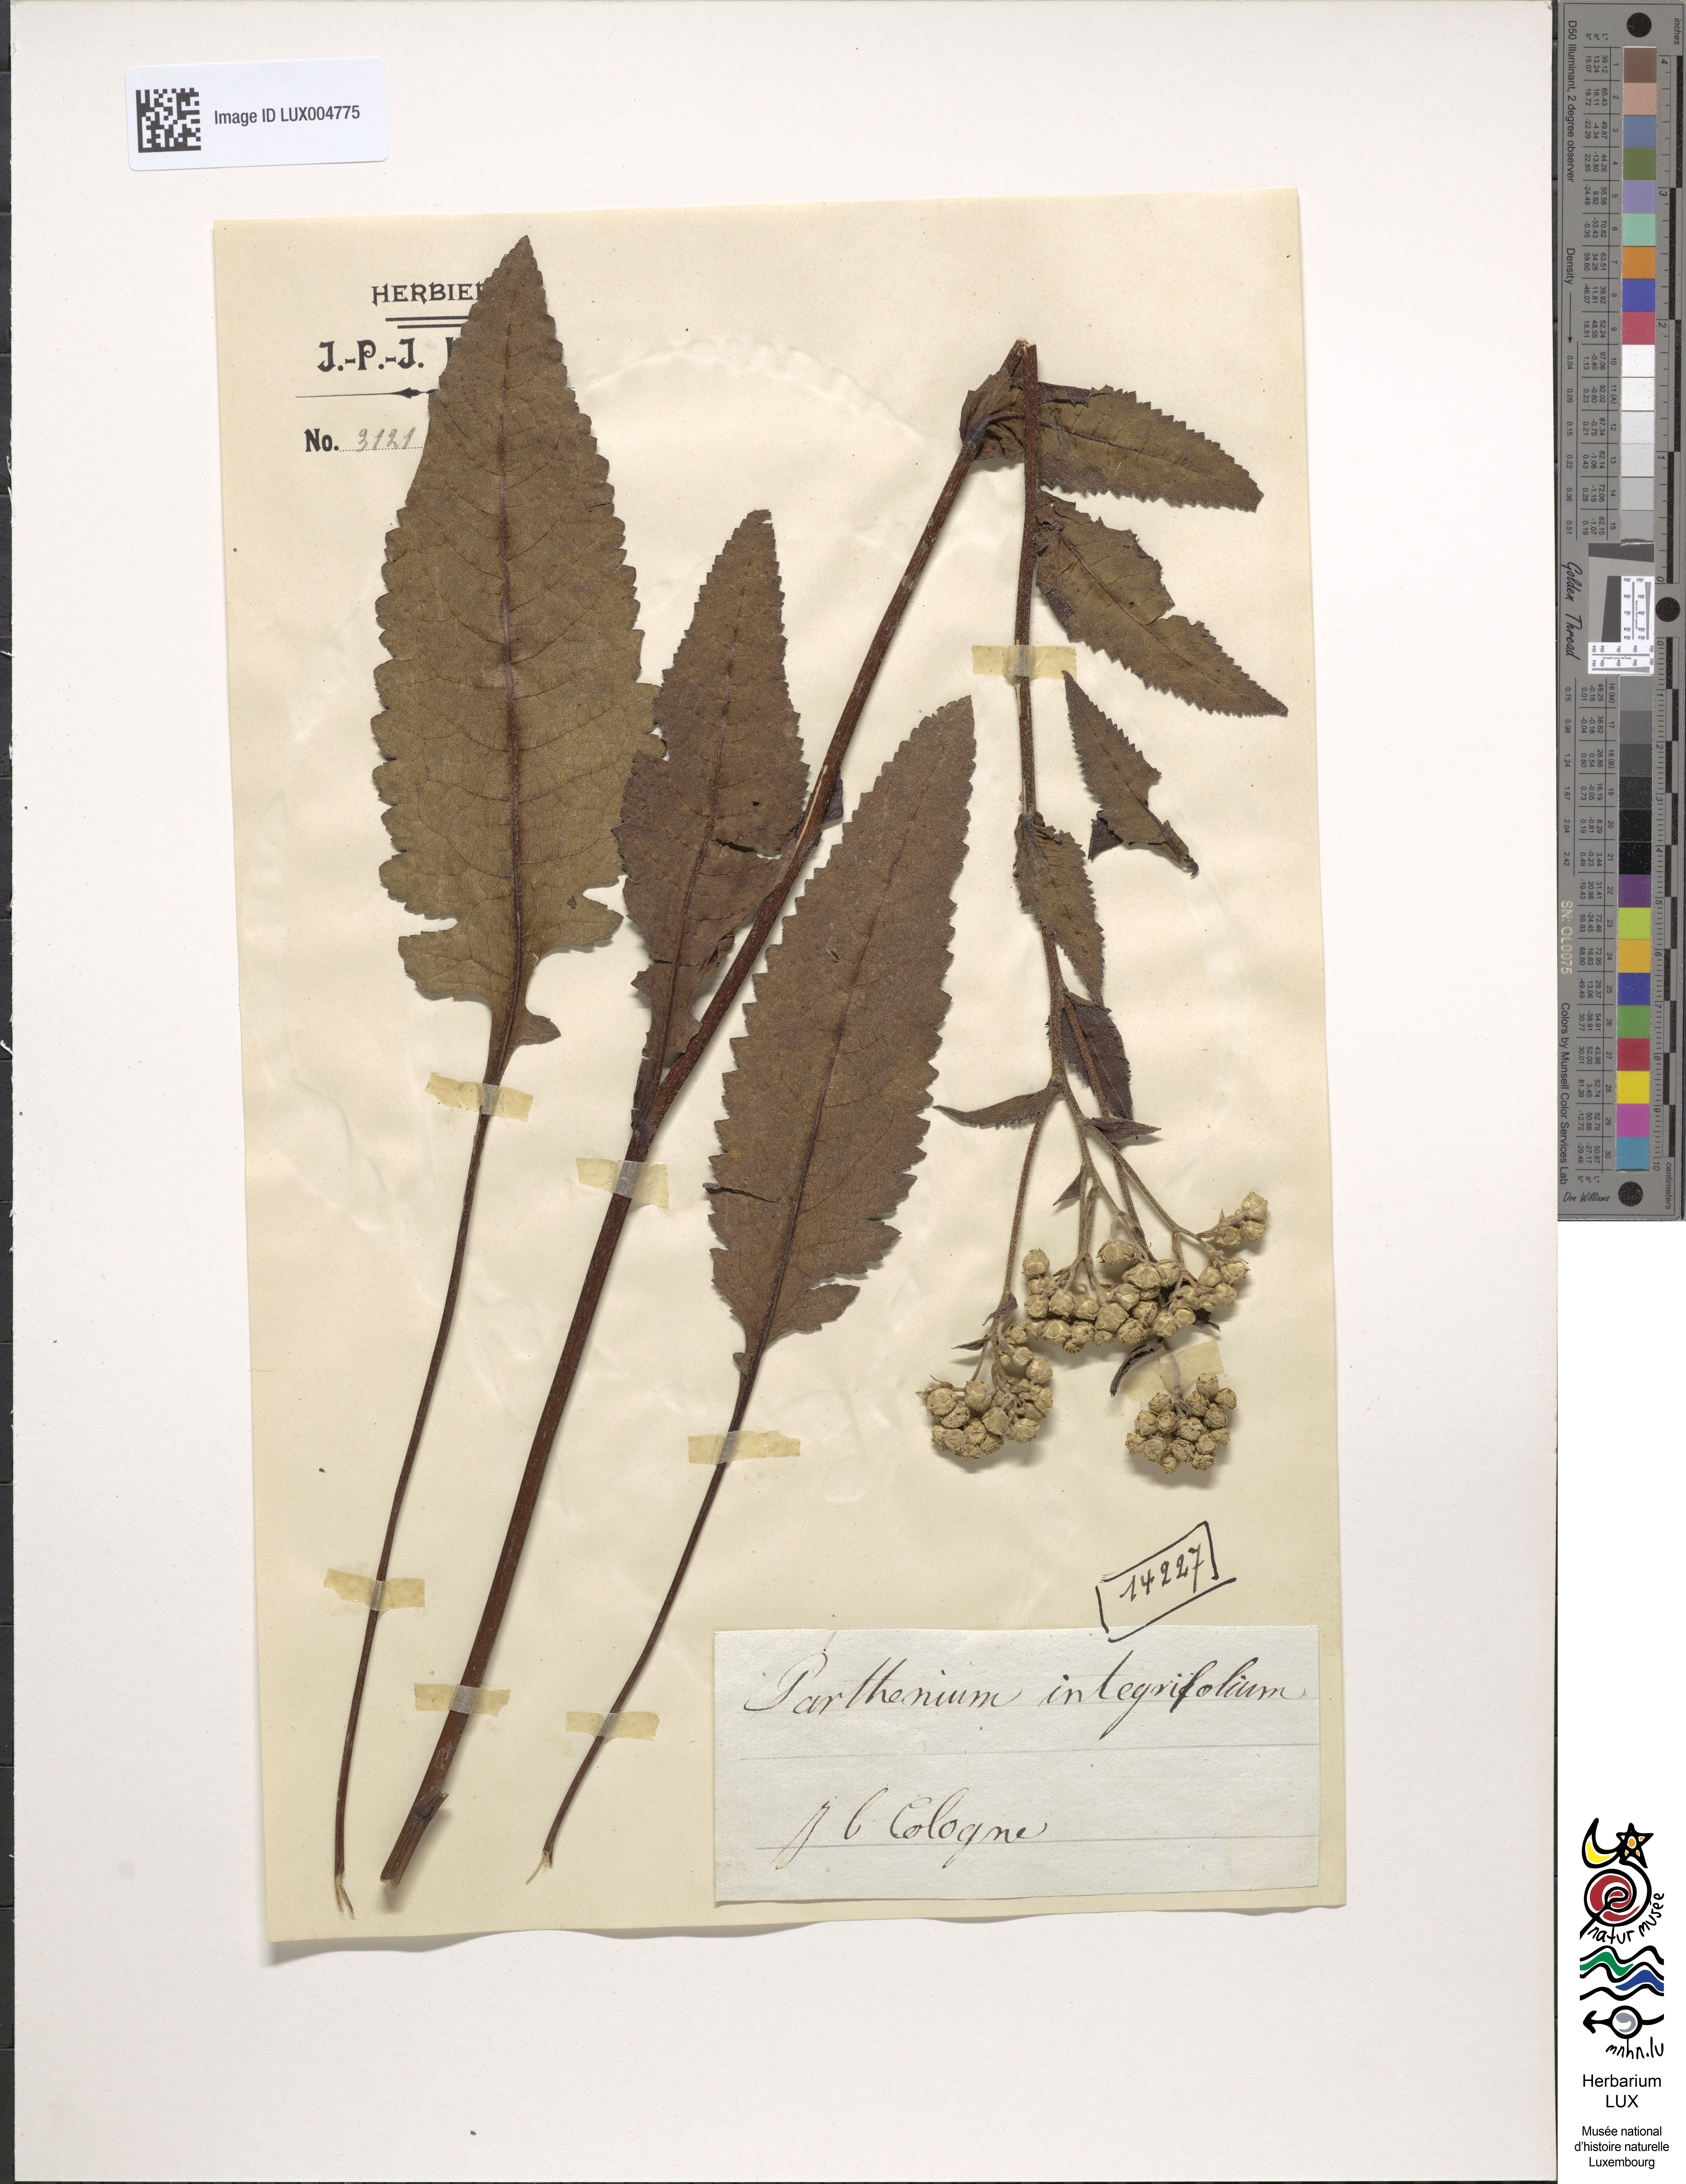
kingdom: Plantae
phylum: Tracheophyta
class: Magnoliopsida
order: Asterales
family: Asteraceae
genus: Parthenium
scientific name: Parthenium integrifolium
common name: American feverfew
